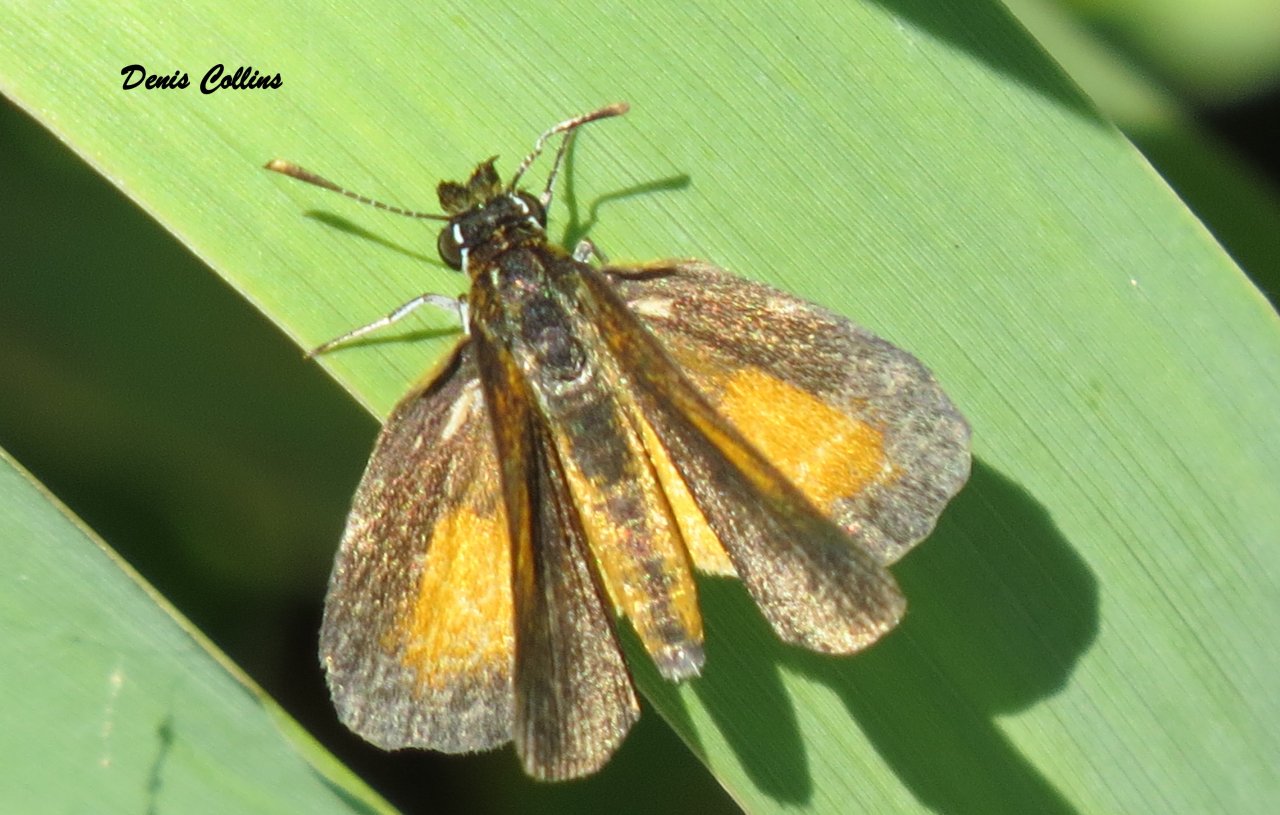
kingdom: Animalia
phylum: Arthropoda
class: Insecta
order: Lepidoptera
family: Hesperiidae
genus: Ancyloxypha
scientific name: Ancyloxypha numitor
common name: Least Skipper
